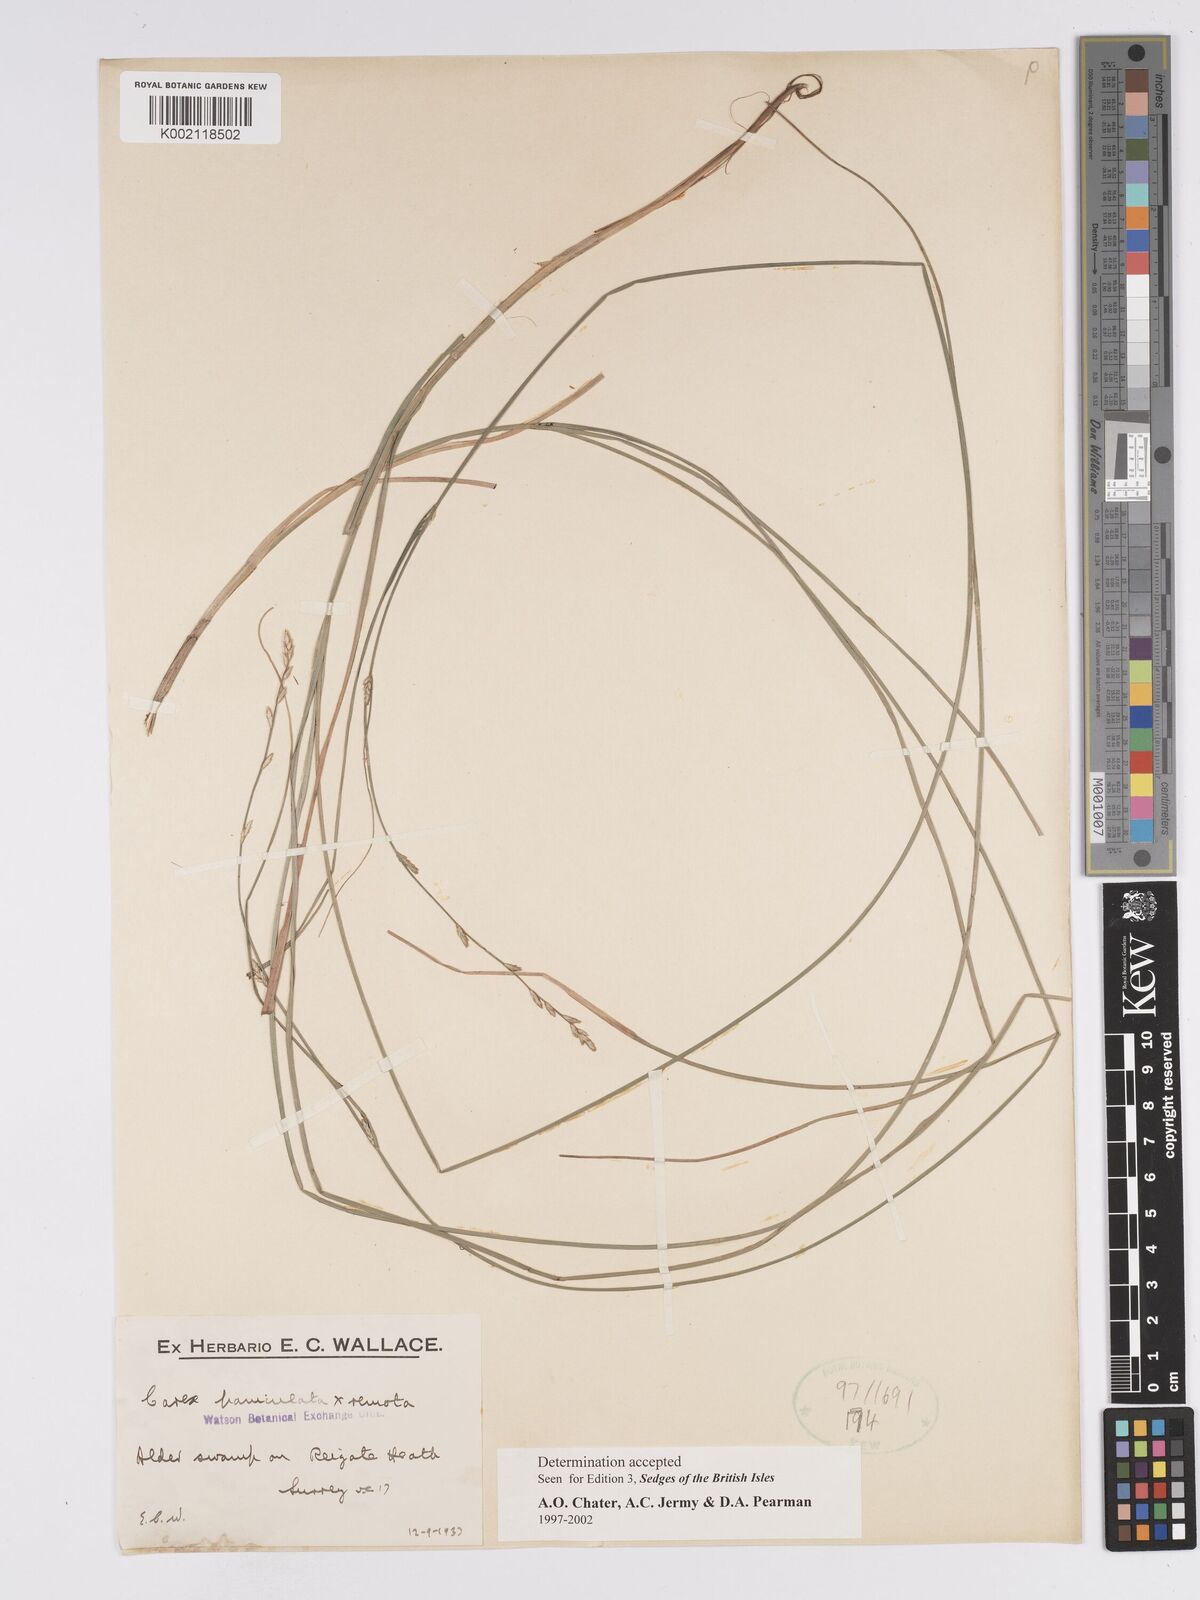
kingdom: Plantae
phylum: Tracheophyta
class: Liliopsida
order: Poales
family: Cyperaceae
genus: Carex
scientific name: Carex boenninghausiana
